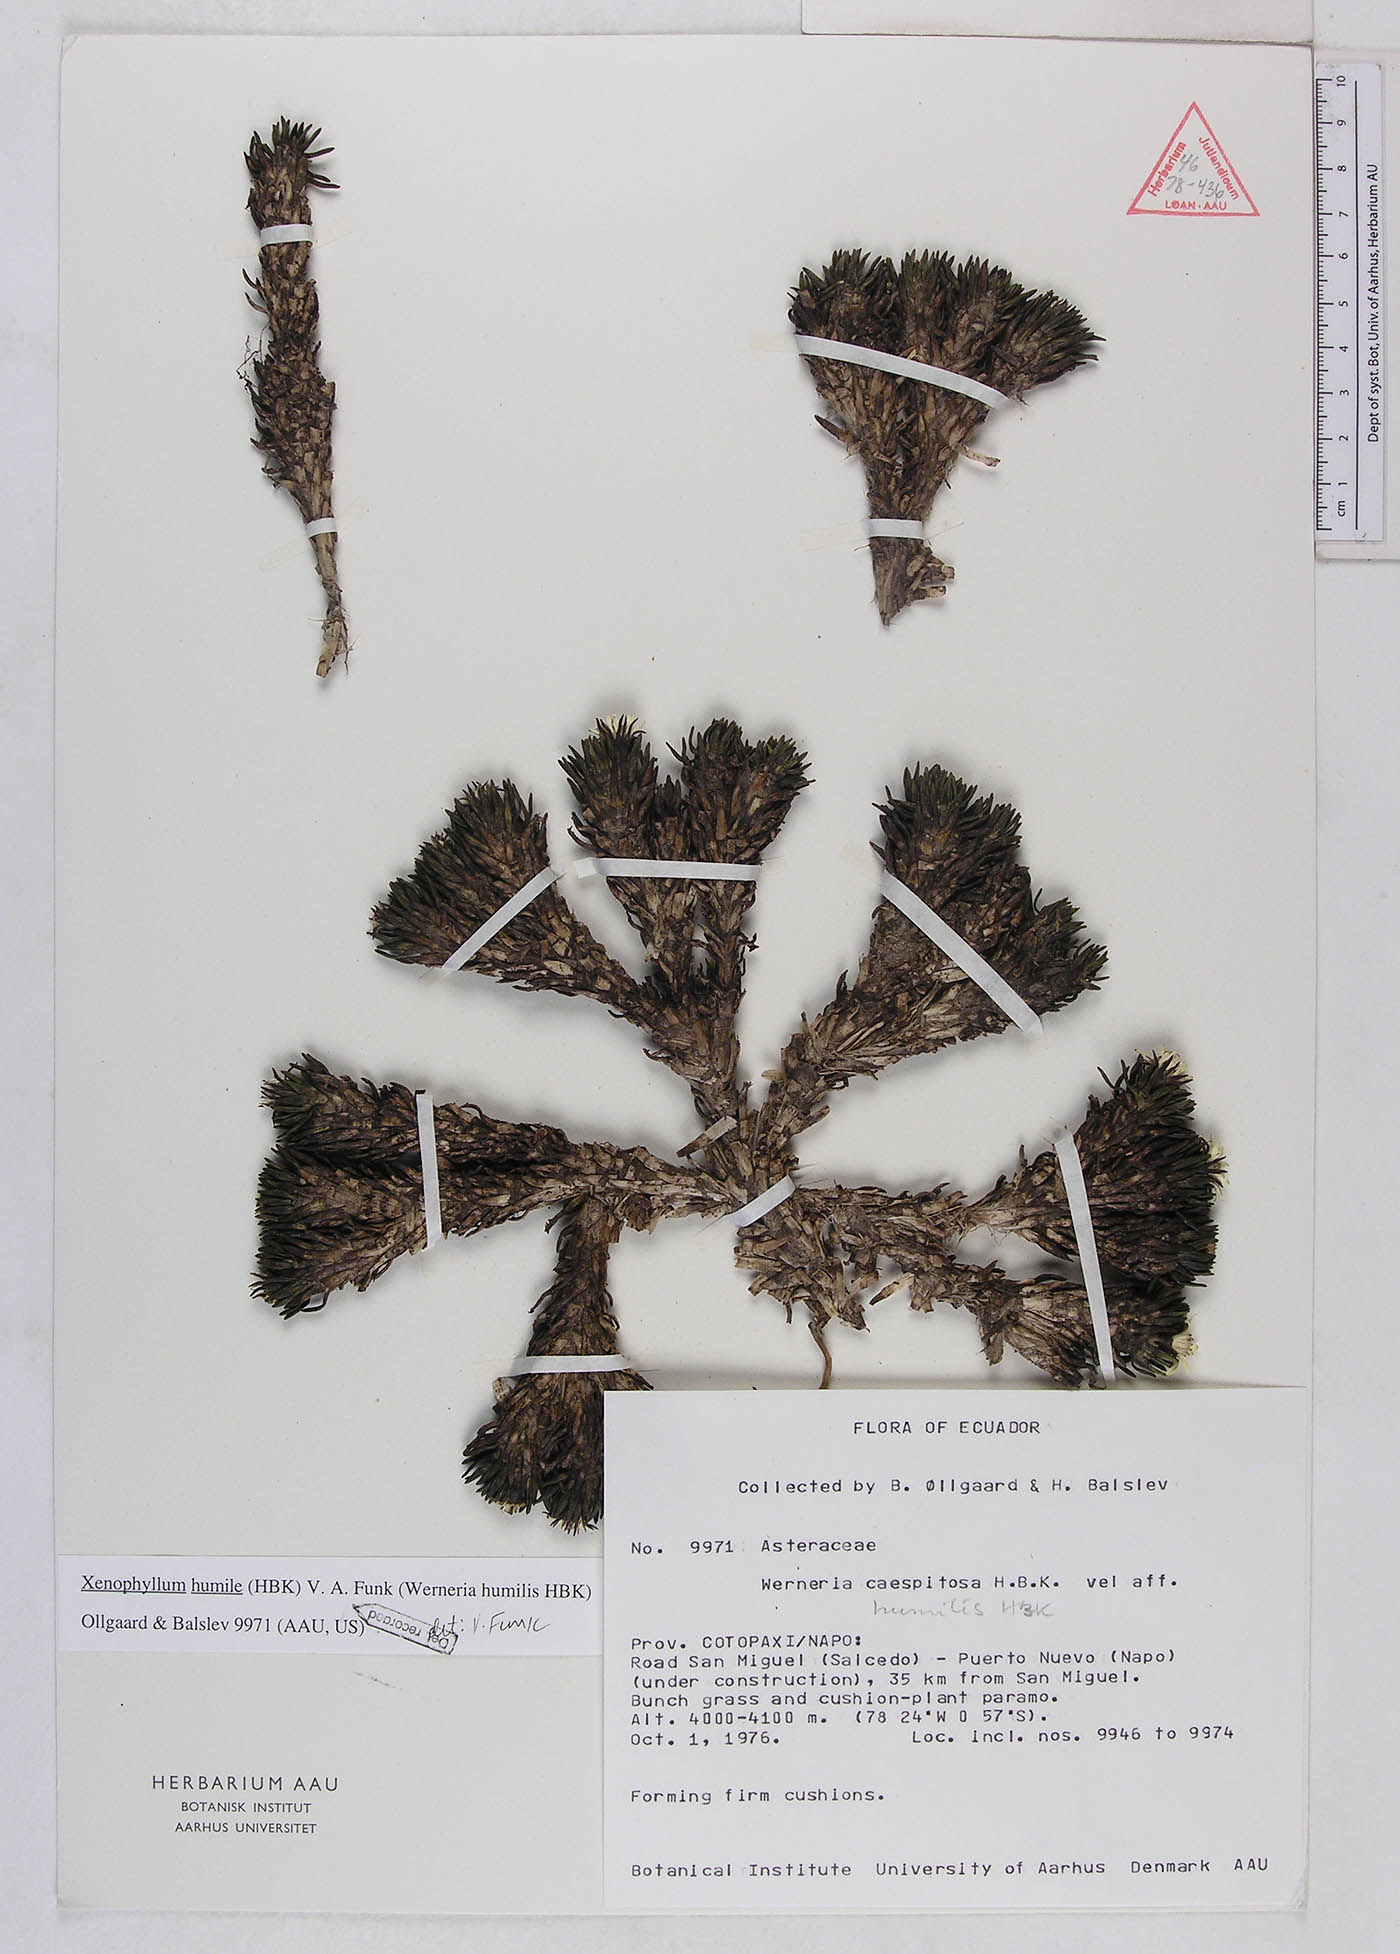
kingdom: Plantae
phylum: Tracheophyta
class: Magnoliopsida
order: Asterales
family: Asteraceae
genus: Werneria
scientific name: Werneria humilis
